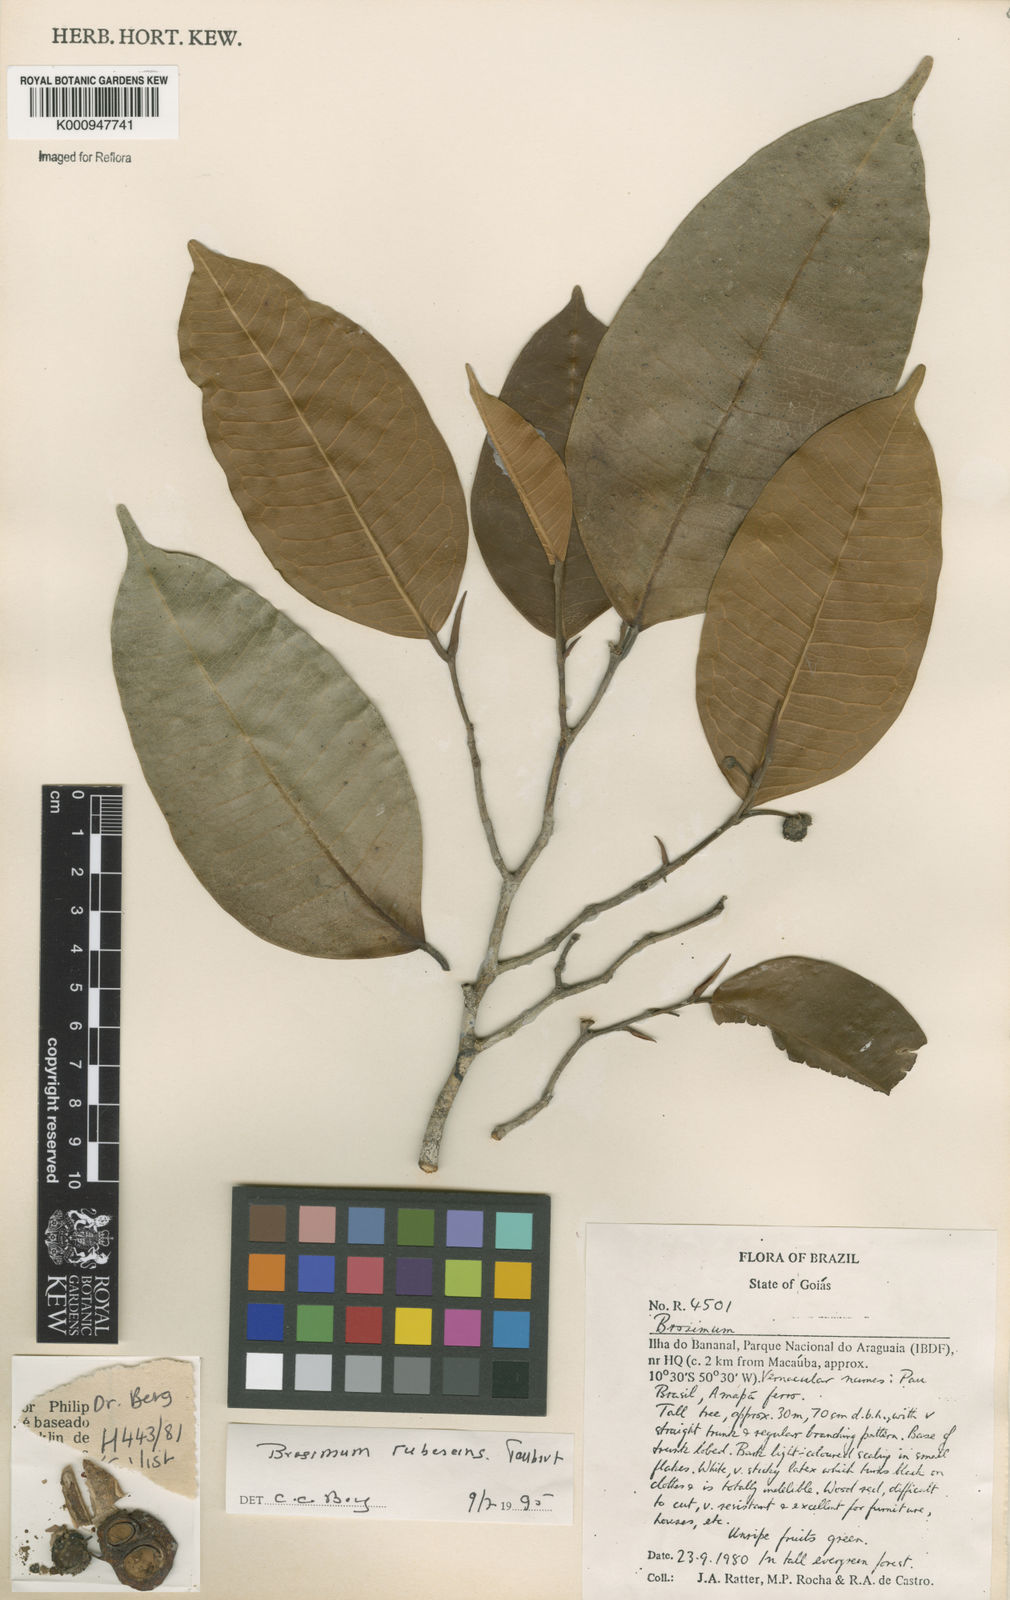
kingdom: Plantae
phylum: Tracheophyta
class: Magnoliopsida
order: Rosales
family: Moraceae
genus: Brosimum
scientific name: Brosimum rubescens
